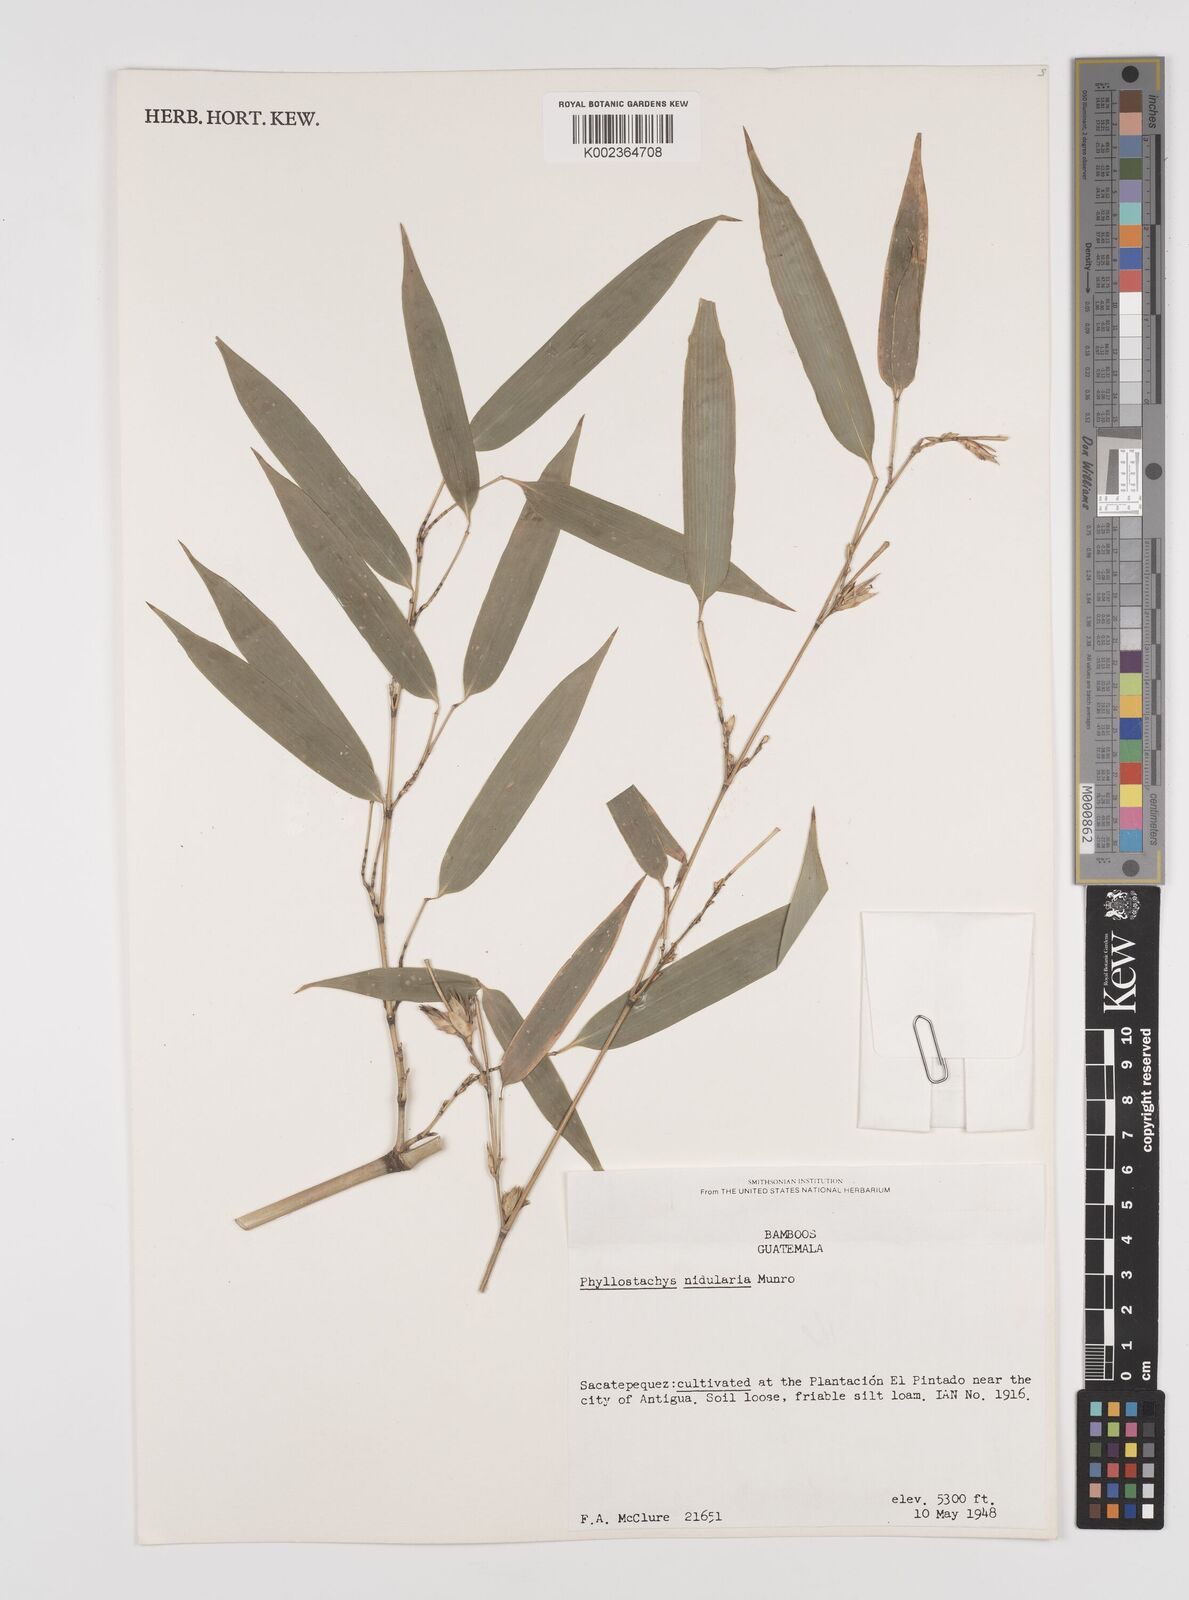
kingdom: Plantae
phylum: Tracheophyta
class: Liliopsida
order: Poales
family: Poaceae
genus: Phyllostachys
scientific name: Phyllostachys nidularia
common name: Broom bamboo
